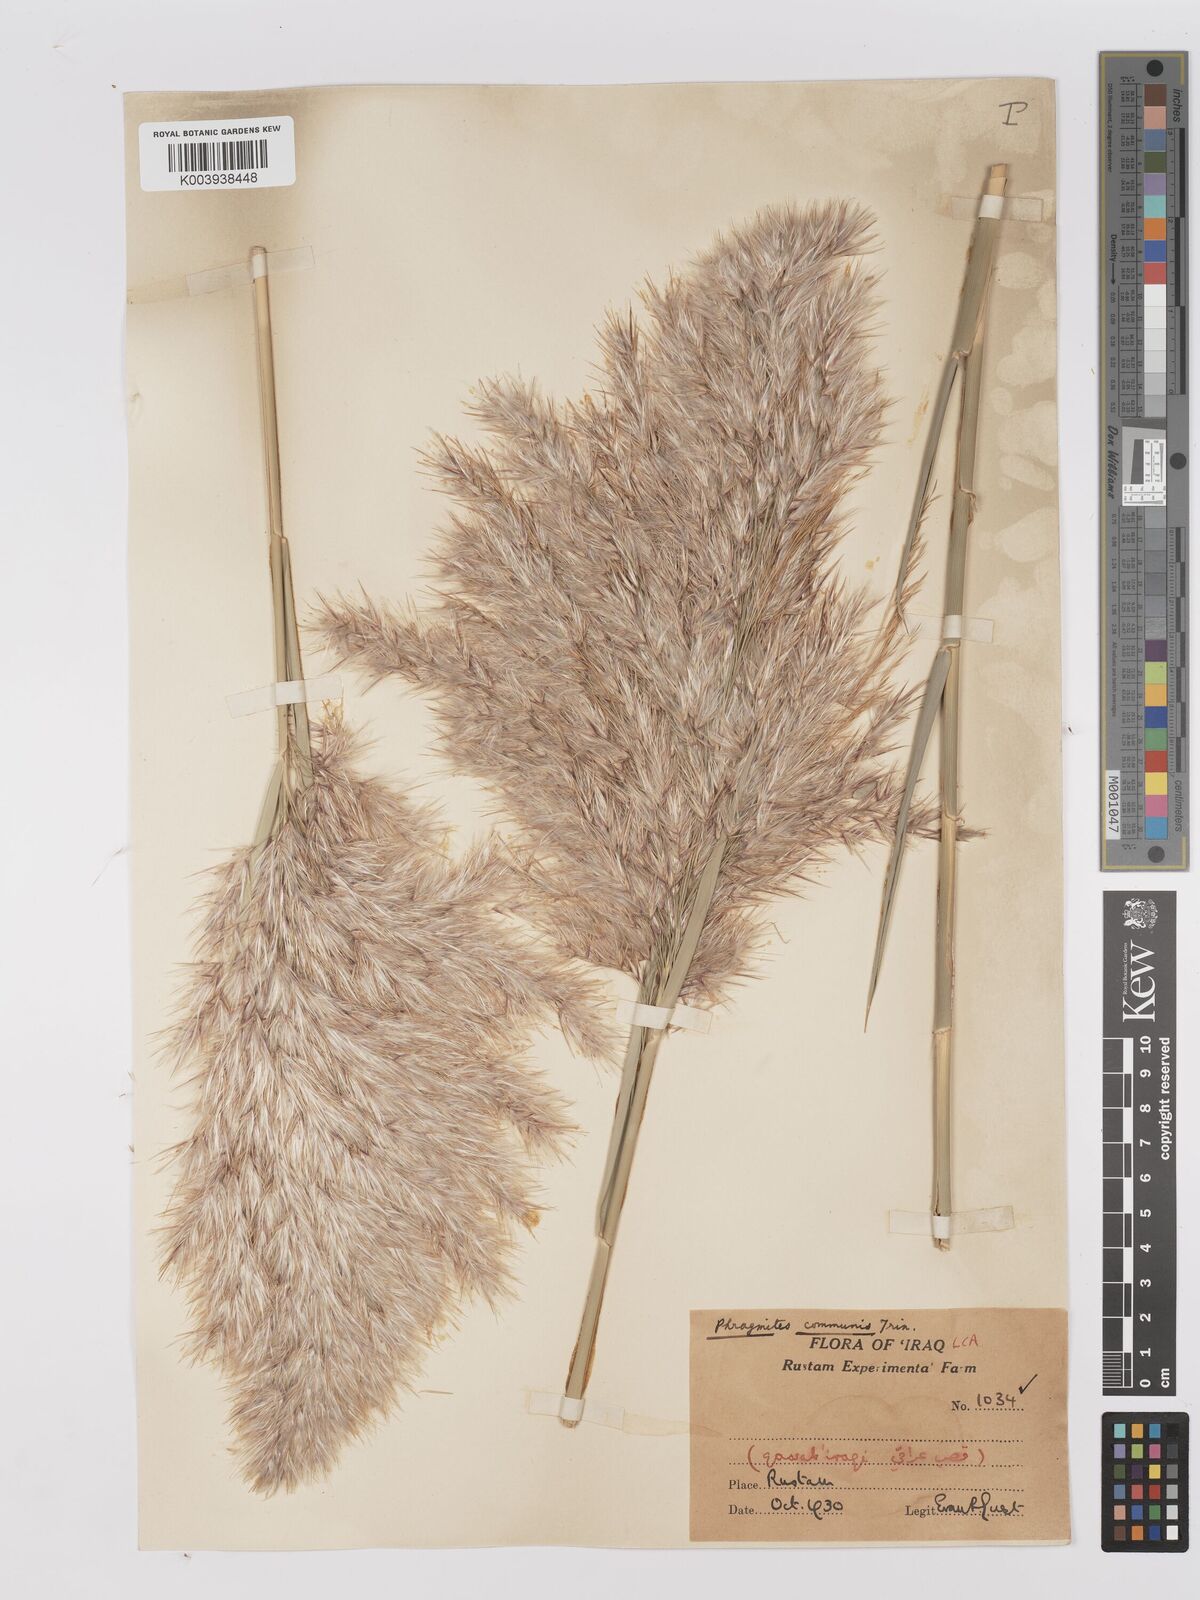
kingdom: Plantae
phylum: Tracheophyta
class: Liliopsida
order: Poales
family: Poaceae
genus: Phragmites
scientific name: Phragmites australis
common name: Common reed
